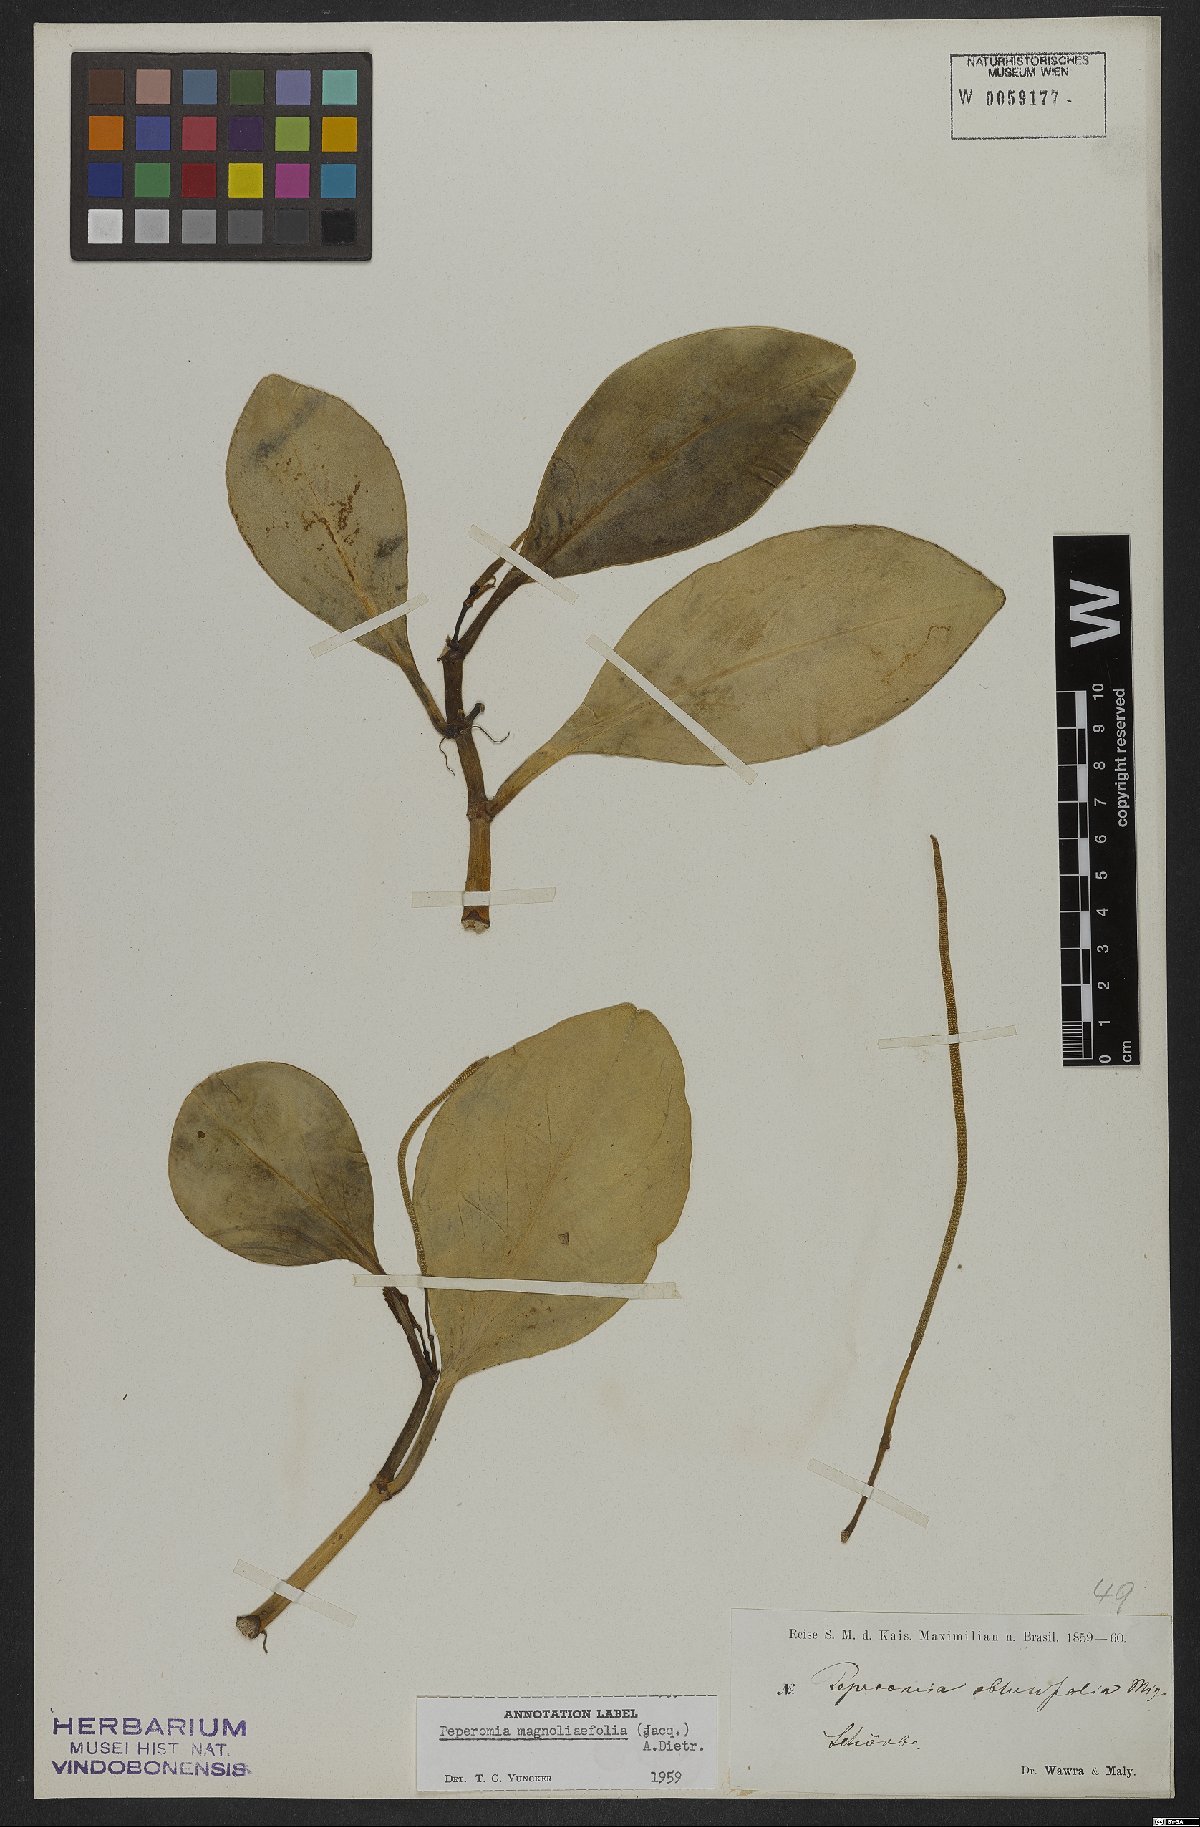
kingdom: Plantae
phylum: Tracheophyta
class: Magnoliopsida
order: Piperales
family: Piperaceae
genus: Peperomia
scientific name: Peperomia magnoliifolia
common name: Spoonleaf peperomia
